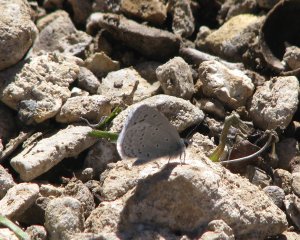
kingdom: Animalia
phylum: Arthropoda
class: Insecta
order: Lepidoptera
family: Lycaenidae
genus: Celastrina
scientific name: Celastrina ladon
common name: Spring Azure
